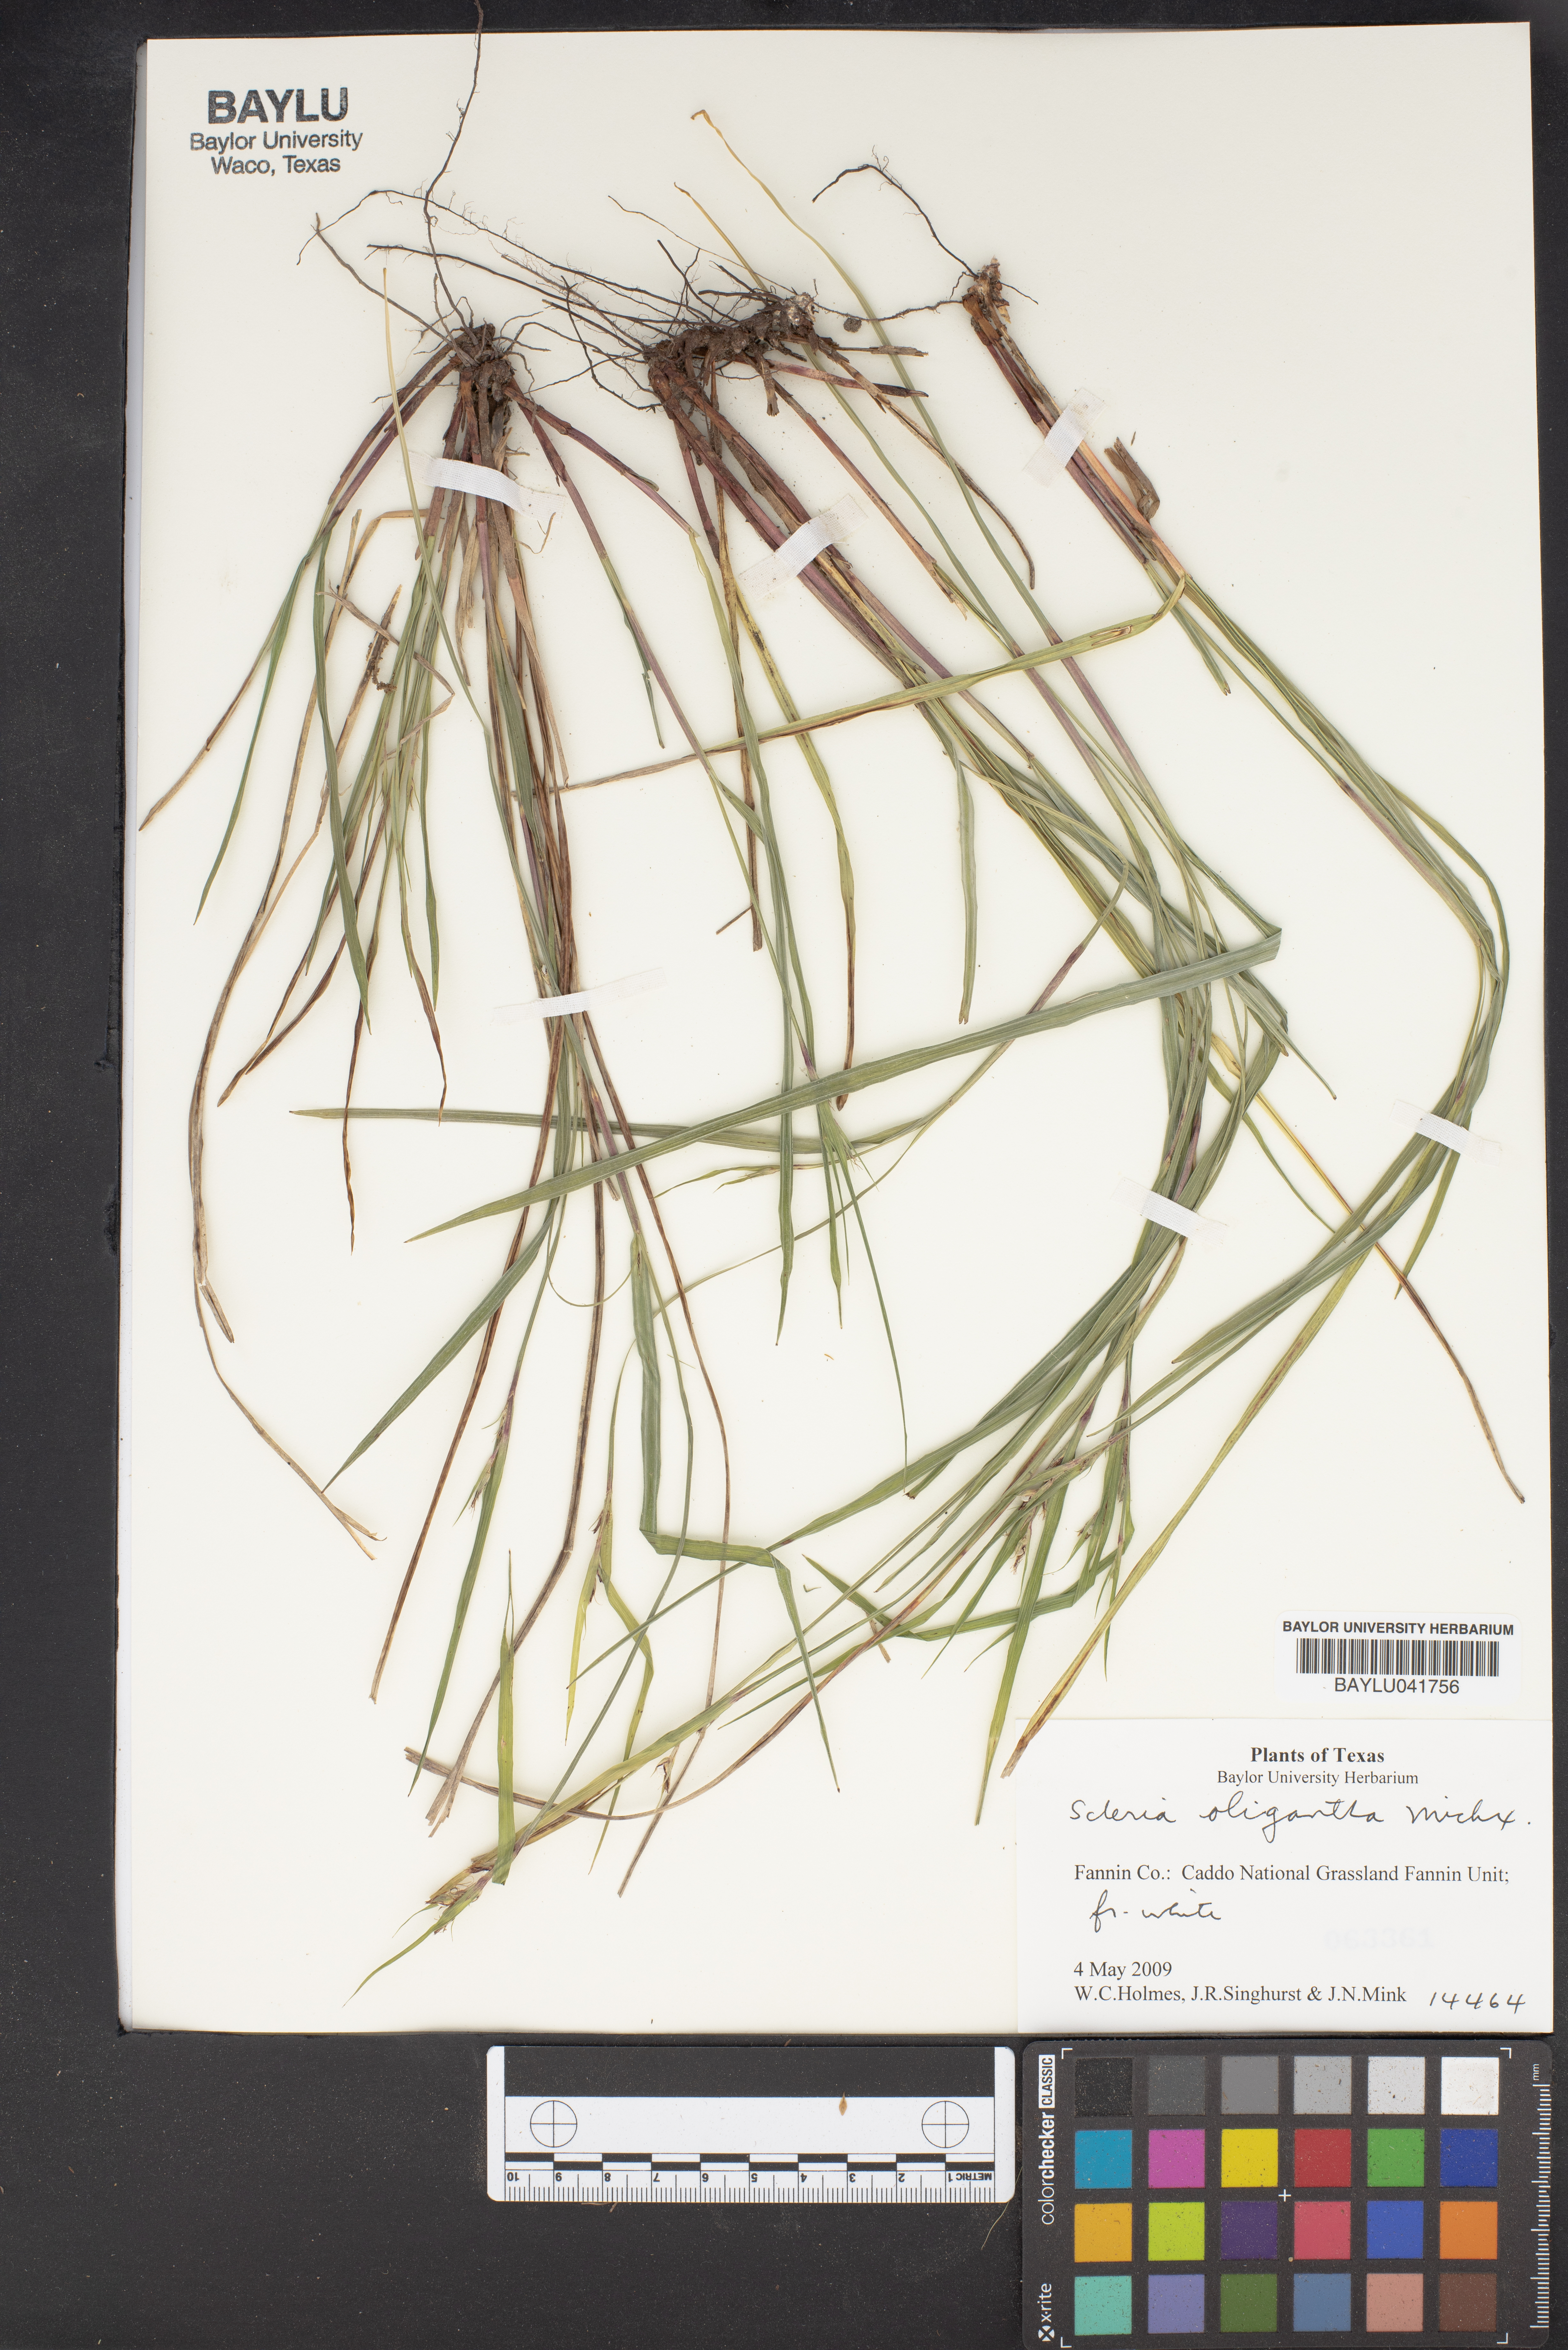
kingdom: Plantae
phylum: Tracheophyta
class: Liliopsida
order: Poales
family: Cyperaceae
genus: Scleria
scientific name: Scleria oligantha
